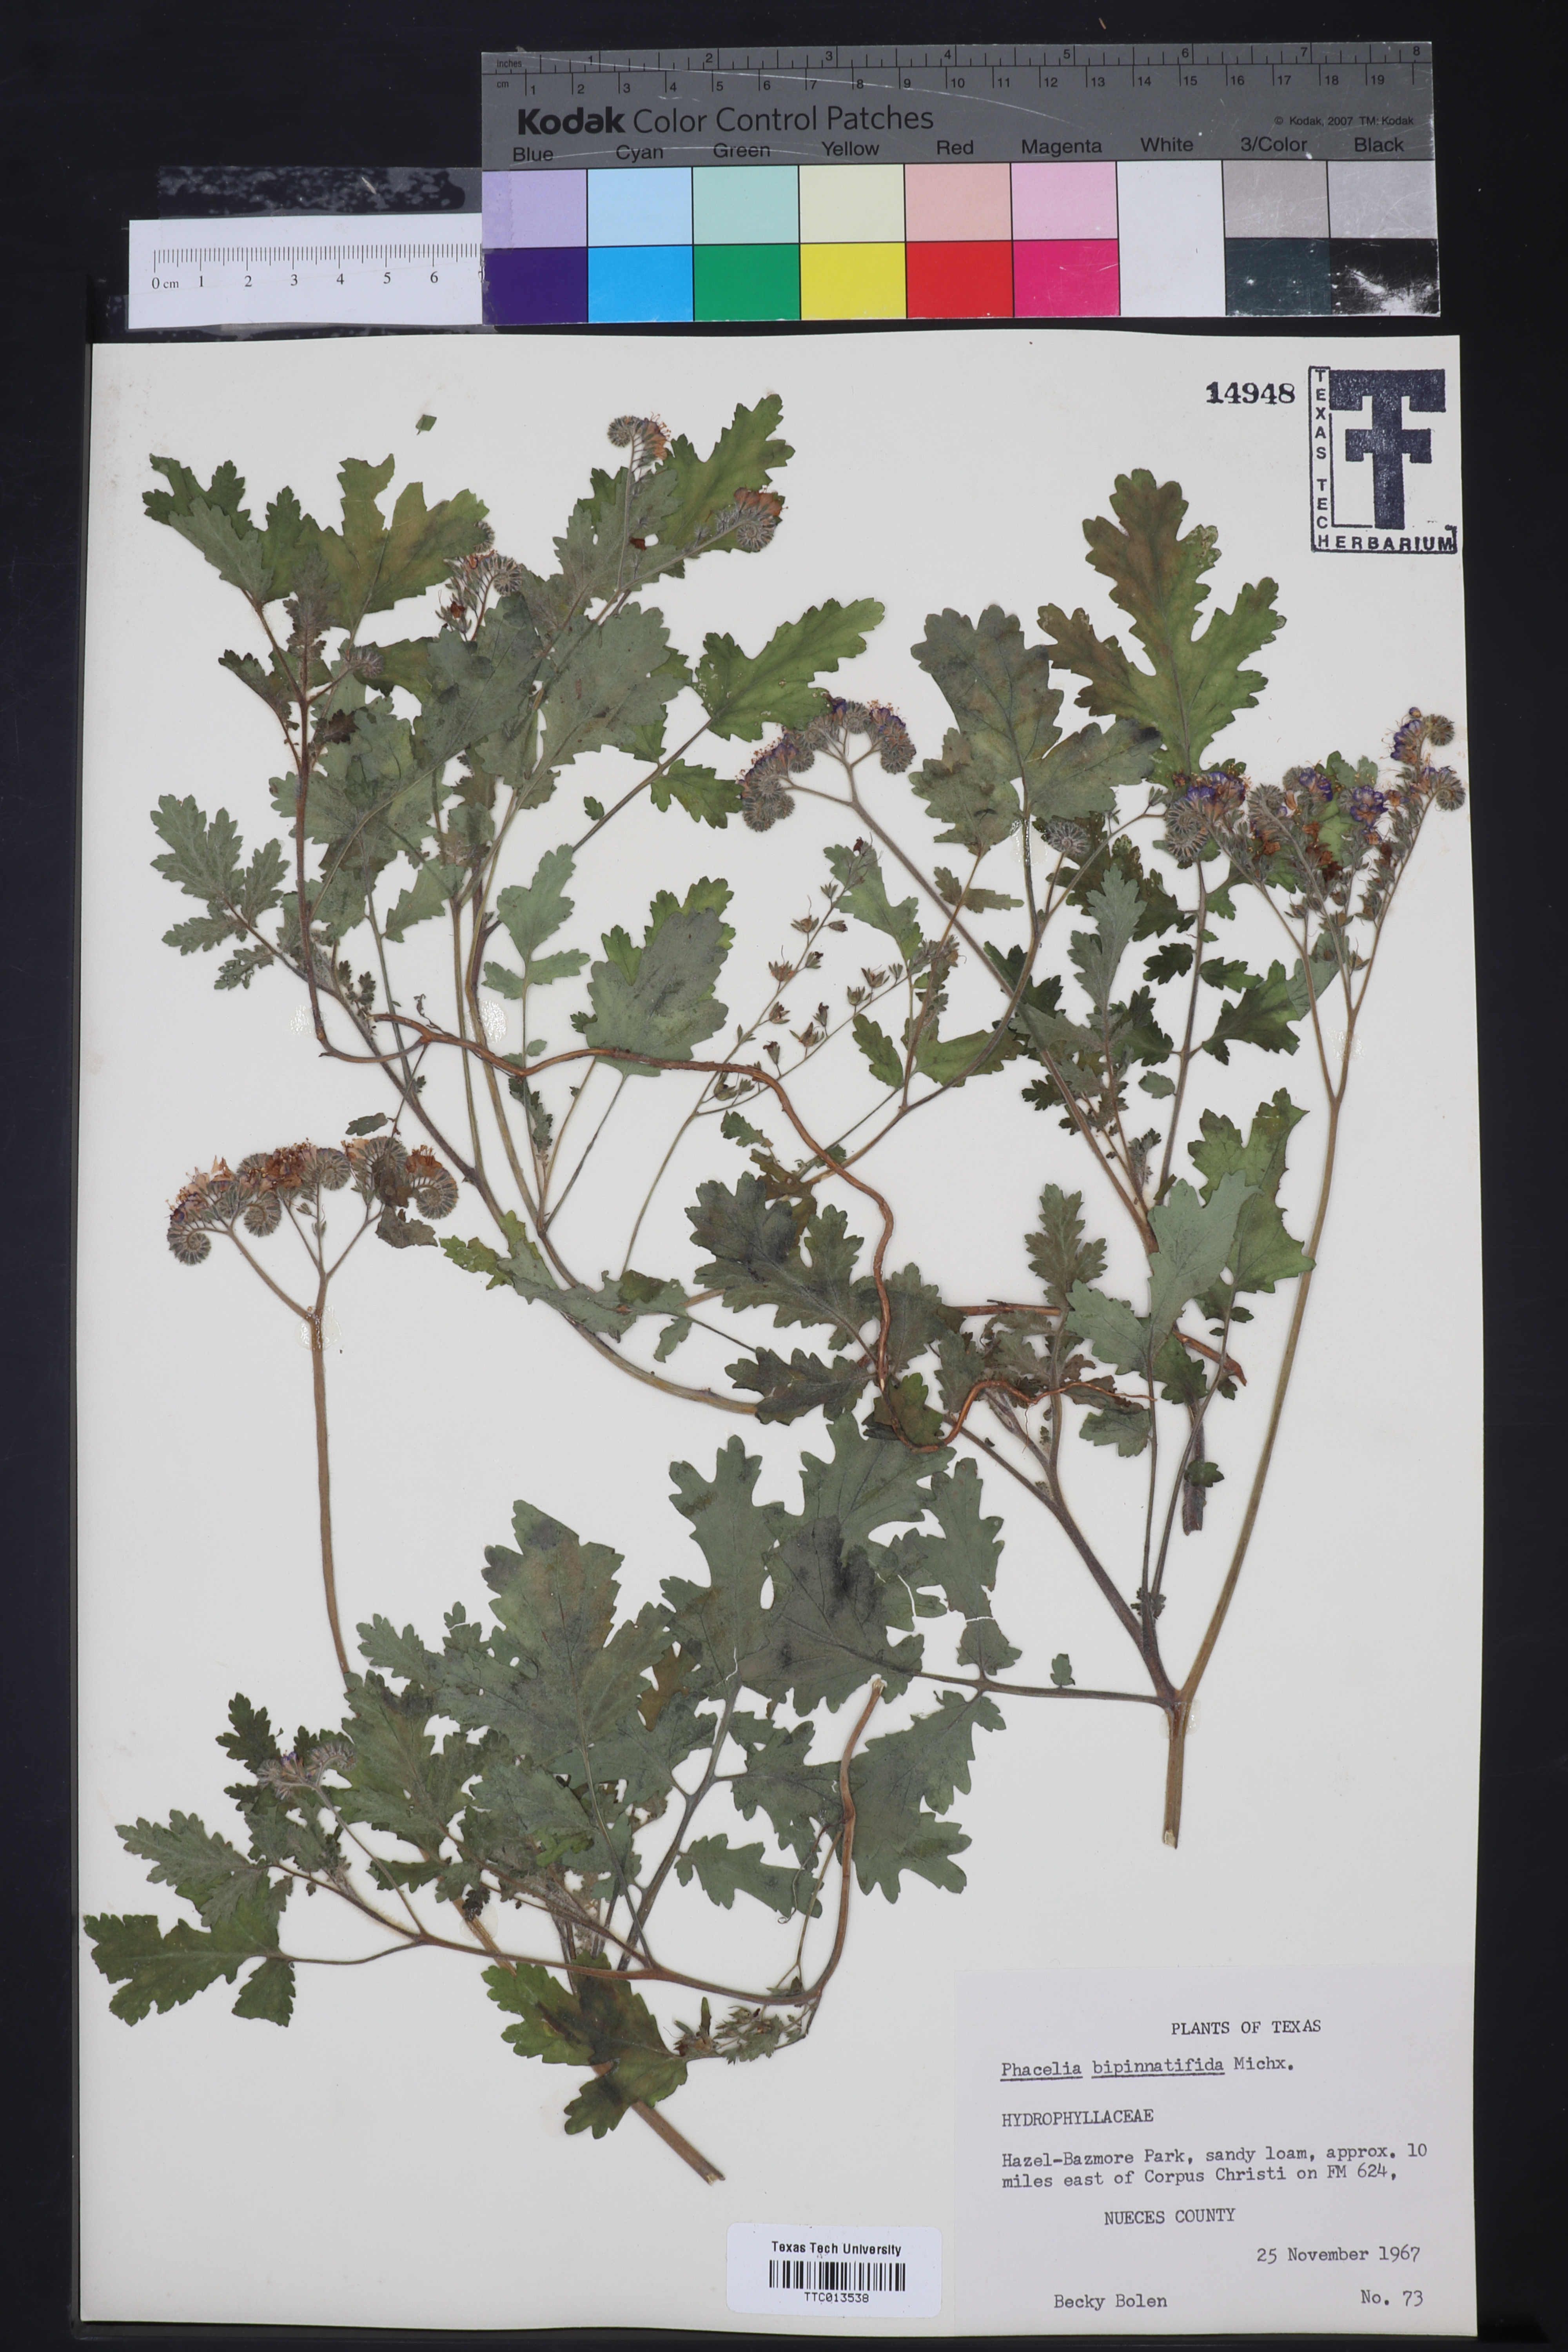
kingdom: Plantae
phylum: Tracheophyta
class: Magnoliopsida
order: Boraginales
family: Hydrophyllaceae
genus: Phacelia
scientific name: Phacelia bipinnatifida
